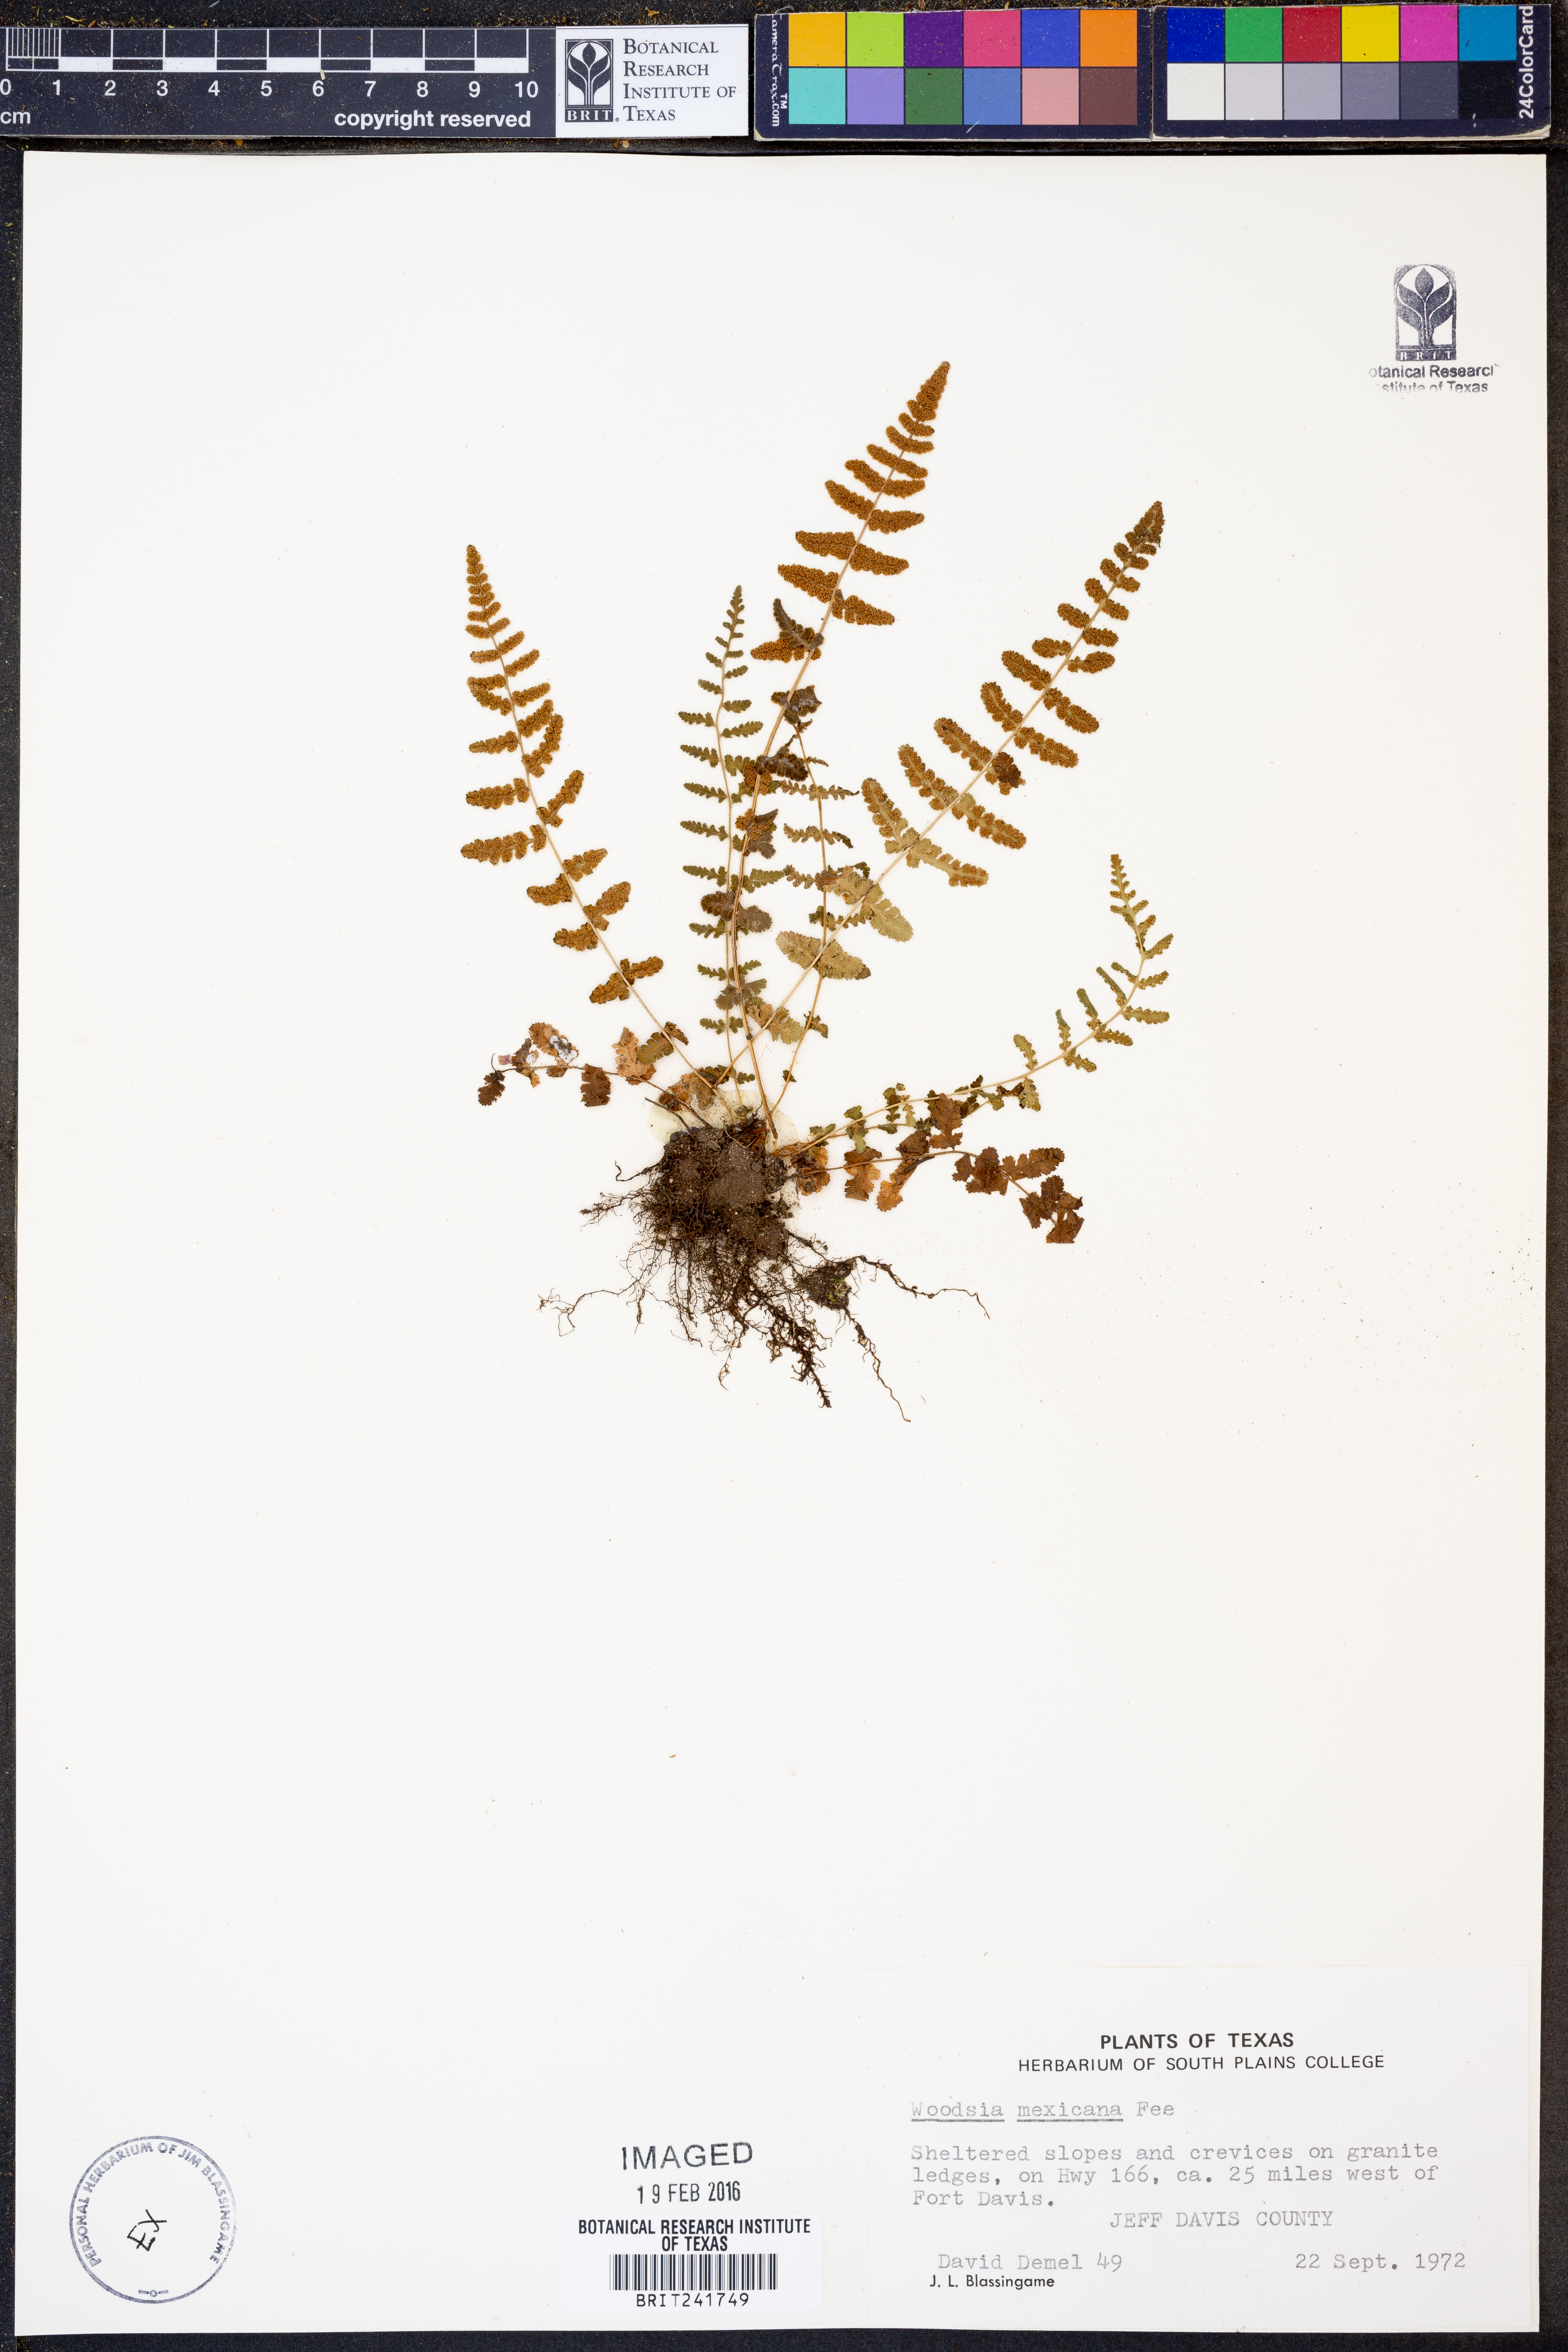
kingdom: Plantae
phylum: Tracheophyta
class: Polypodiopsida
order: Polypodiales
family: Woodsiaceae
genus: Physematium
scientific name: Physematium mexicanum
